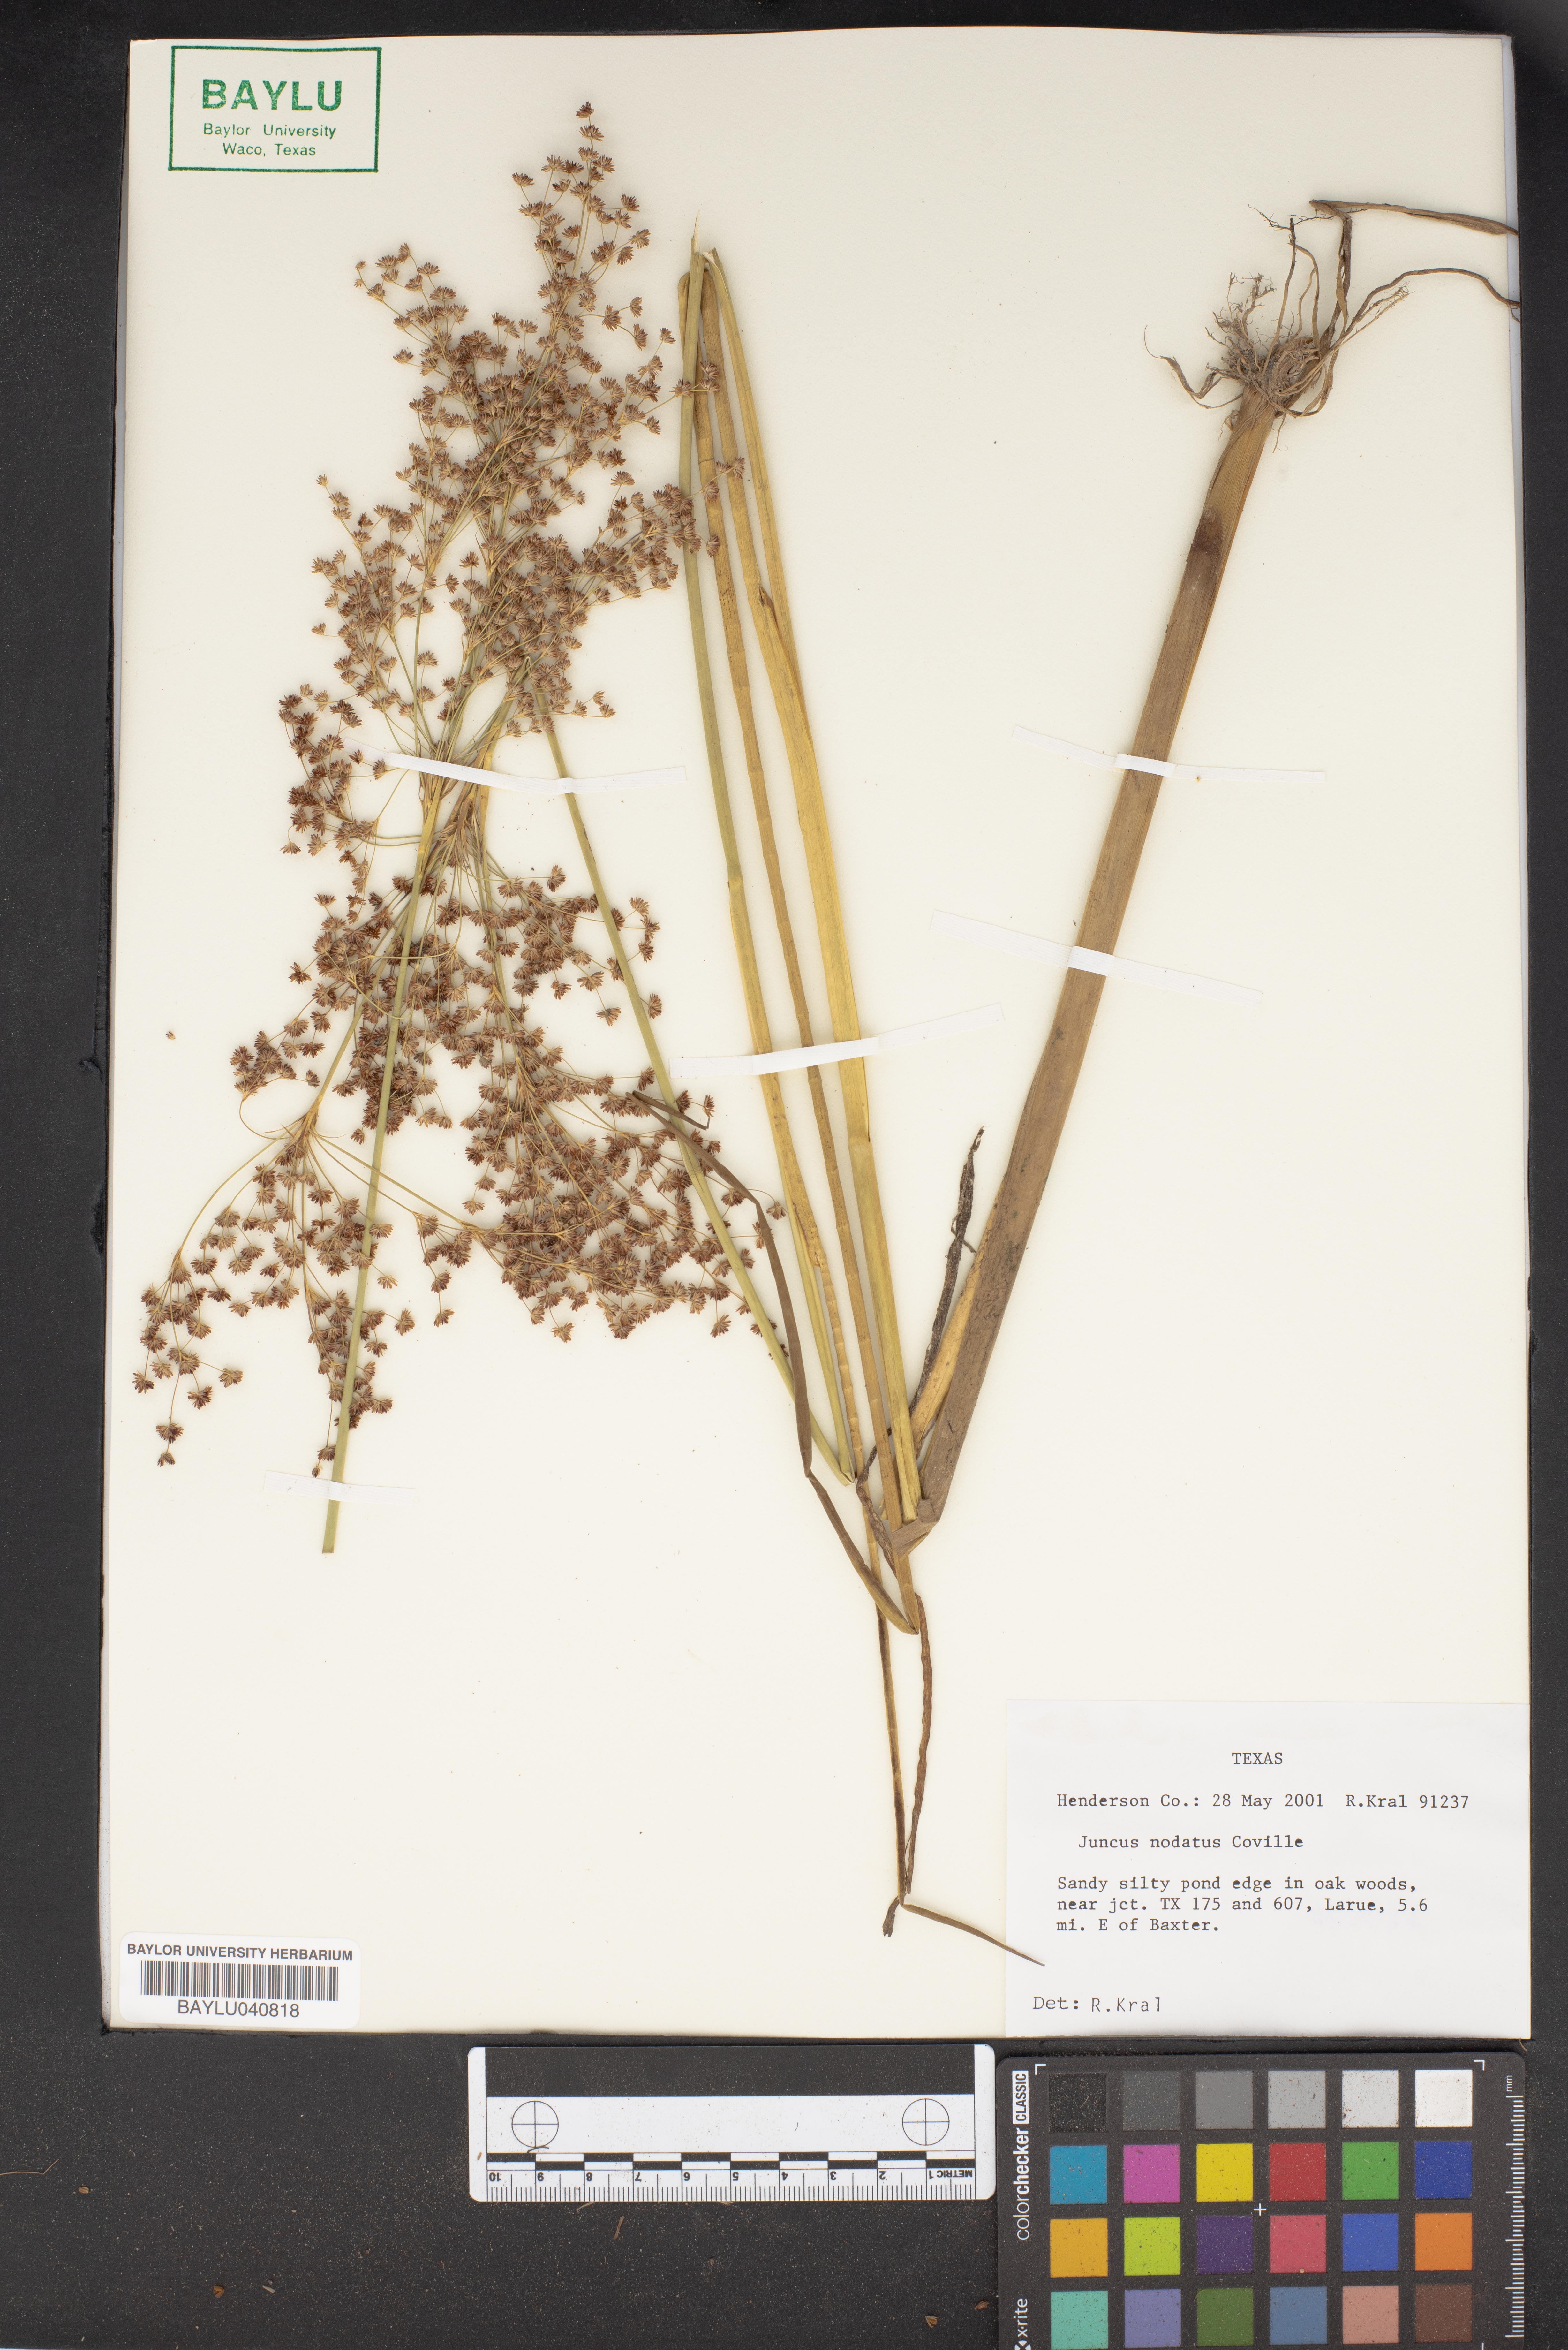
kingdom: Plantae
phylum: Tracheophyta
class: Liliopsida
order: Poales
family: Juncaceae
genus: Juncus
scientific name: Juncus nodatus
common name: Stout rush
